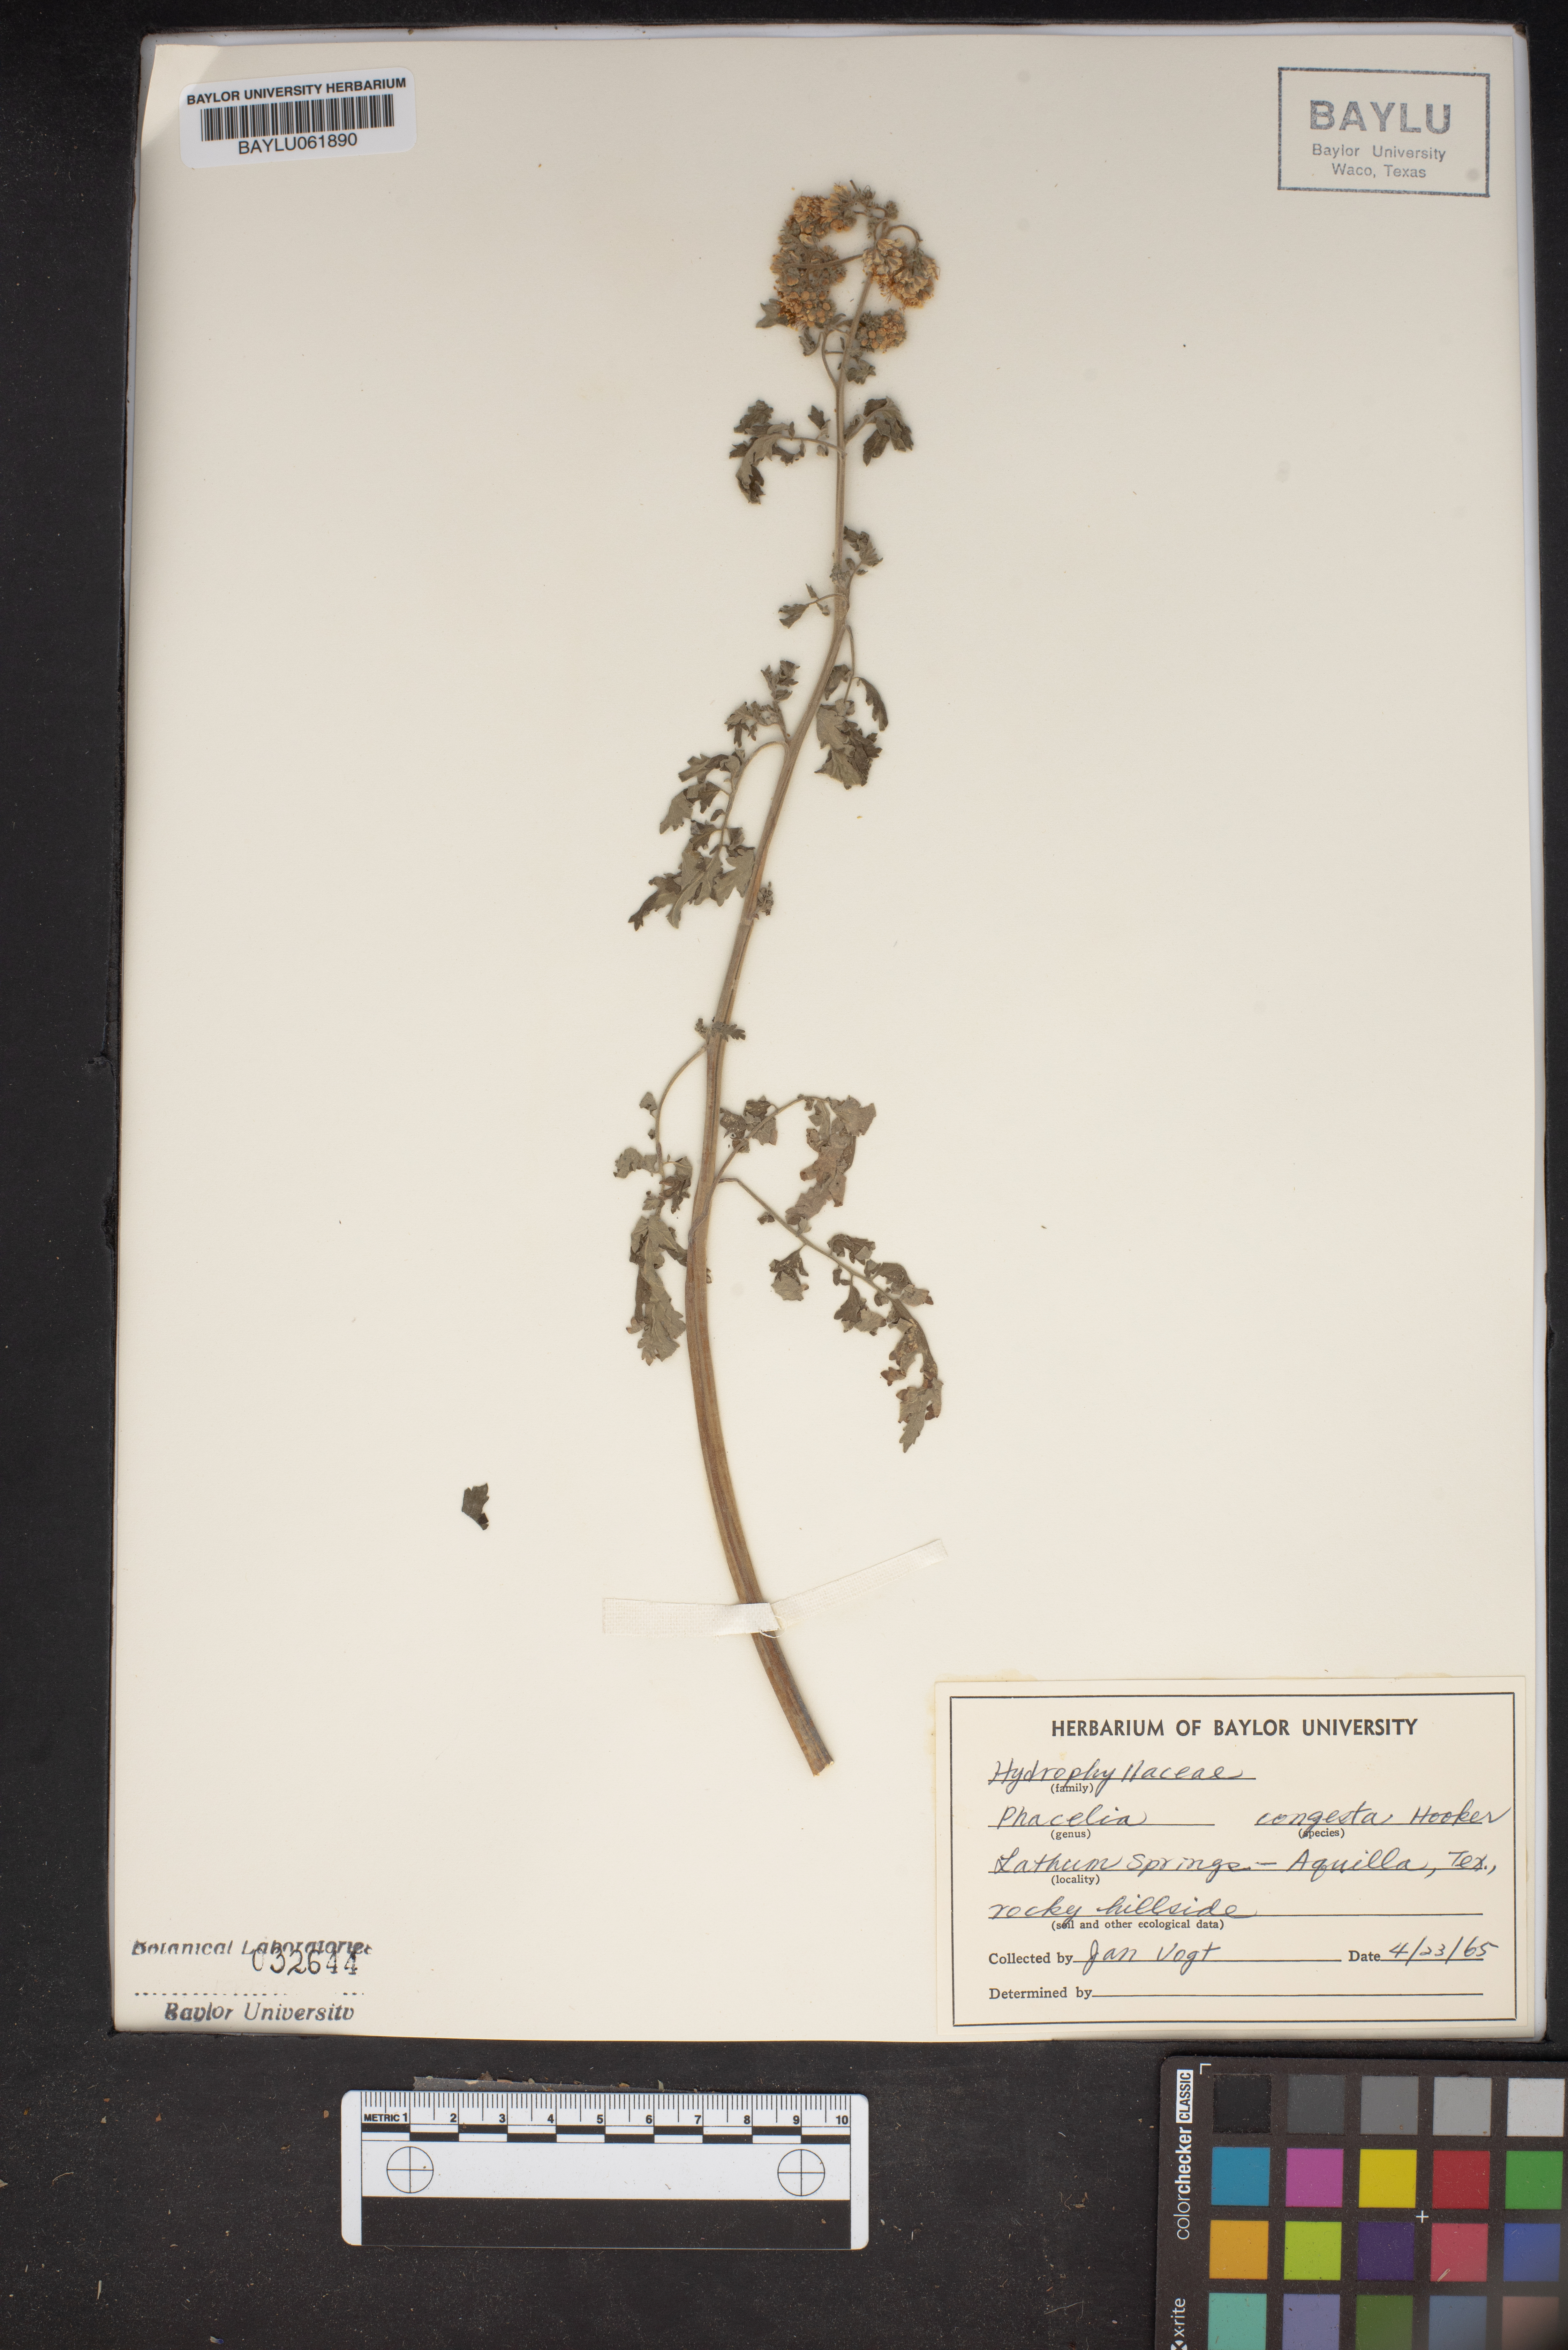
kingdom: Plantae
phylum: Tracheophyta
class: Magnoliopsida
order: Boraginales
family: Hydrophyllaceae
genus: Phacelia
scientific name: Phacelia congesta
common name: Blue curls
